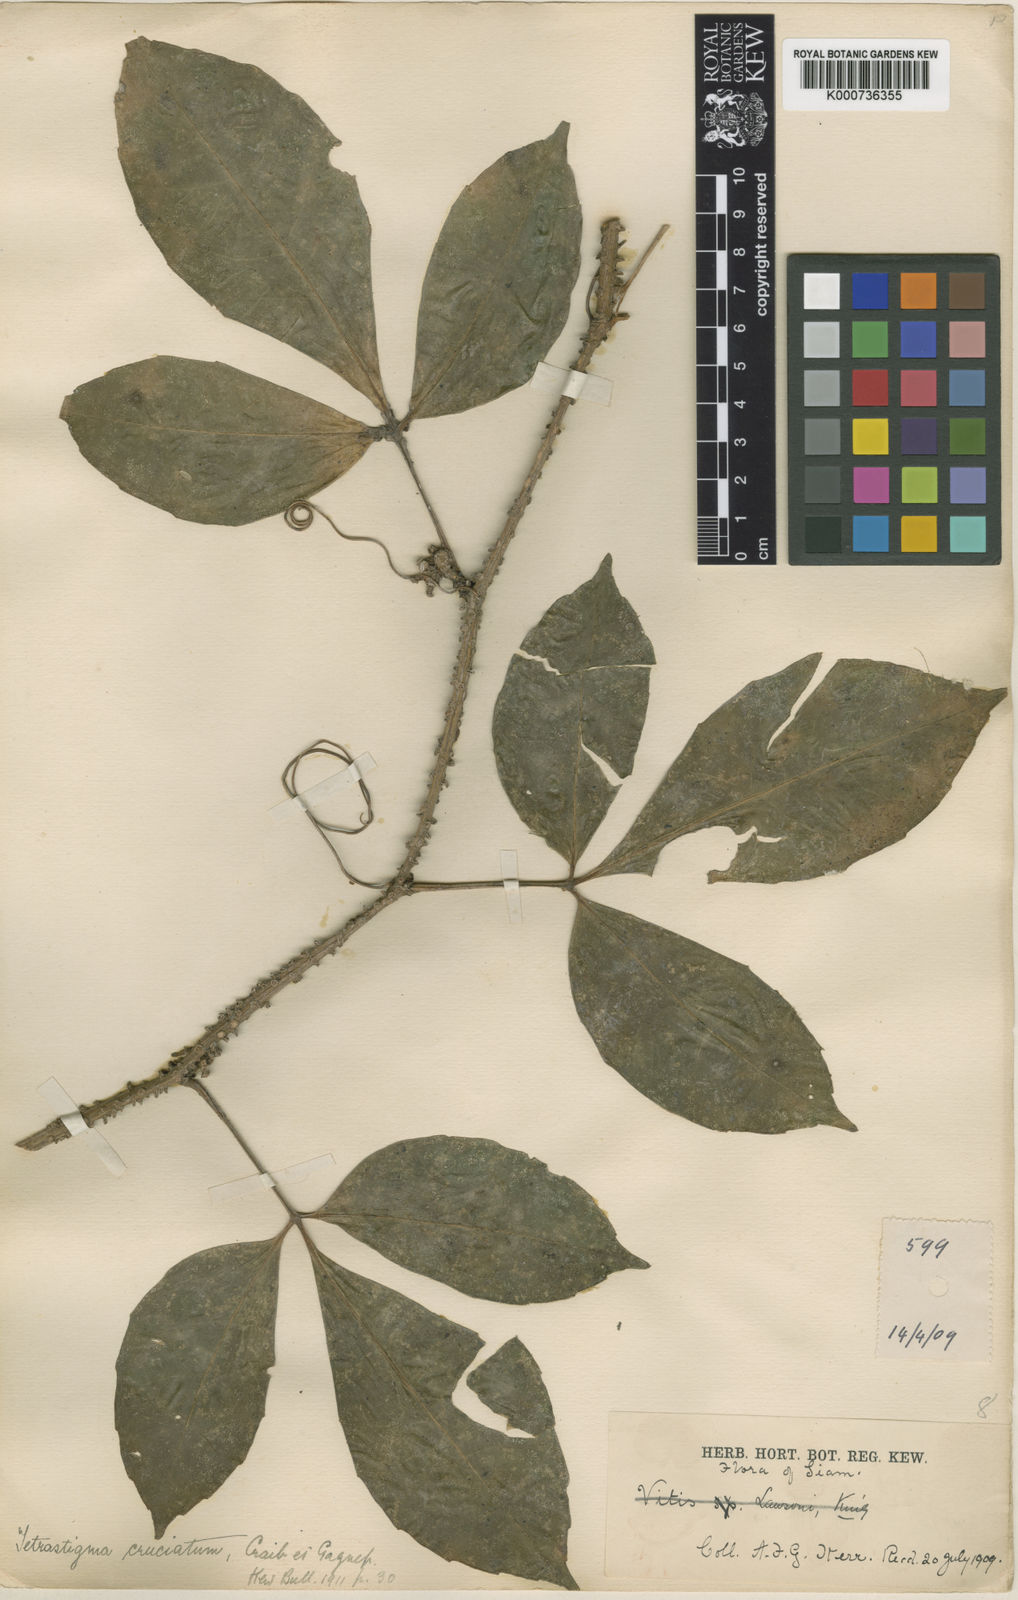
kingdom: Plantae
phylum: Tracheophyta
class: Magnoliopsida
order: Vitales
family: Vitaceae
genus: Tetrastigma
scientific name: Tetrastigma cruciatum
